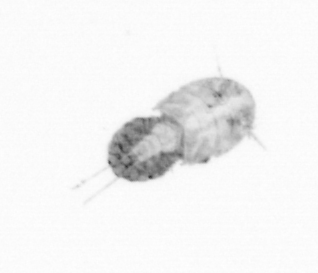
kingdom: Animalia
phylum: Arthropoda
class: Copepoda
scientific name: Copepoda
